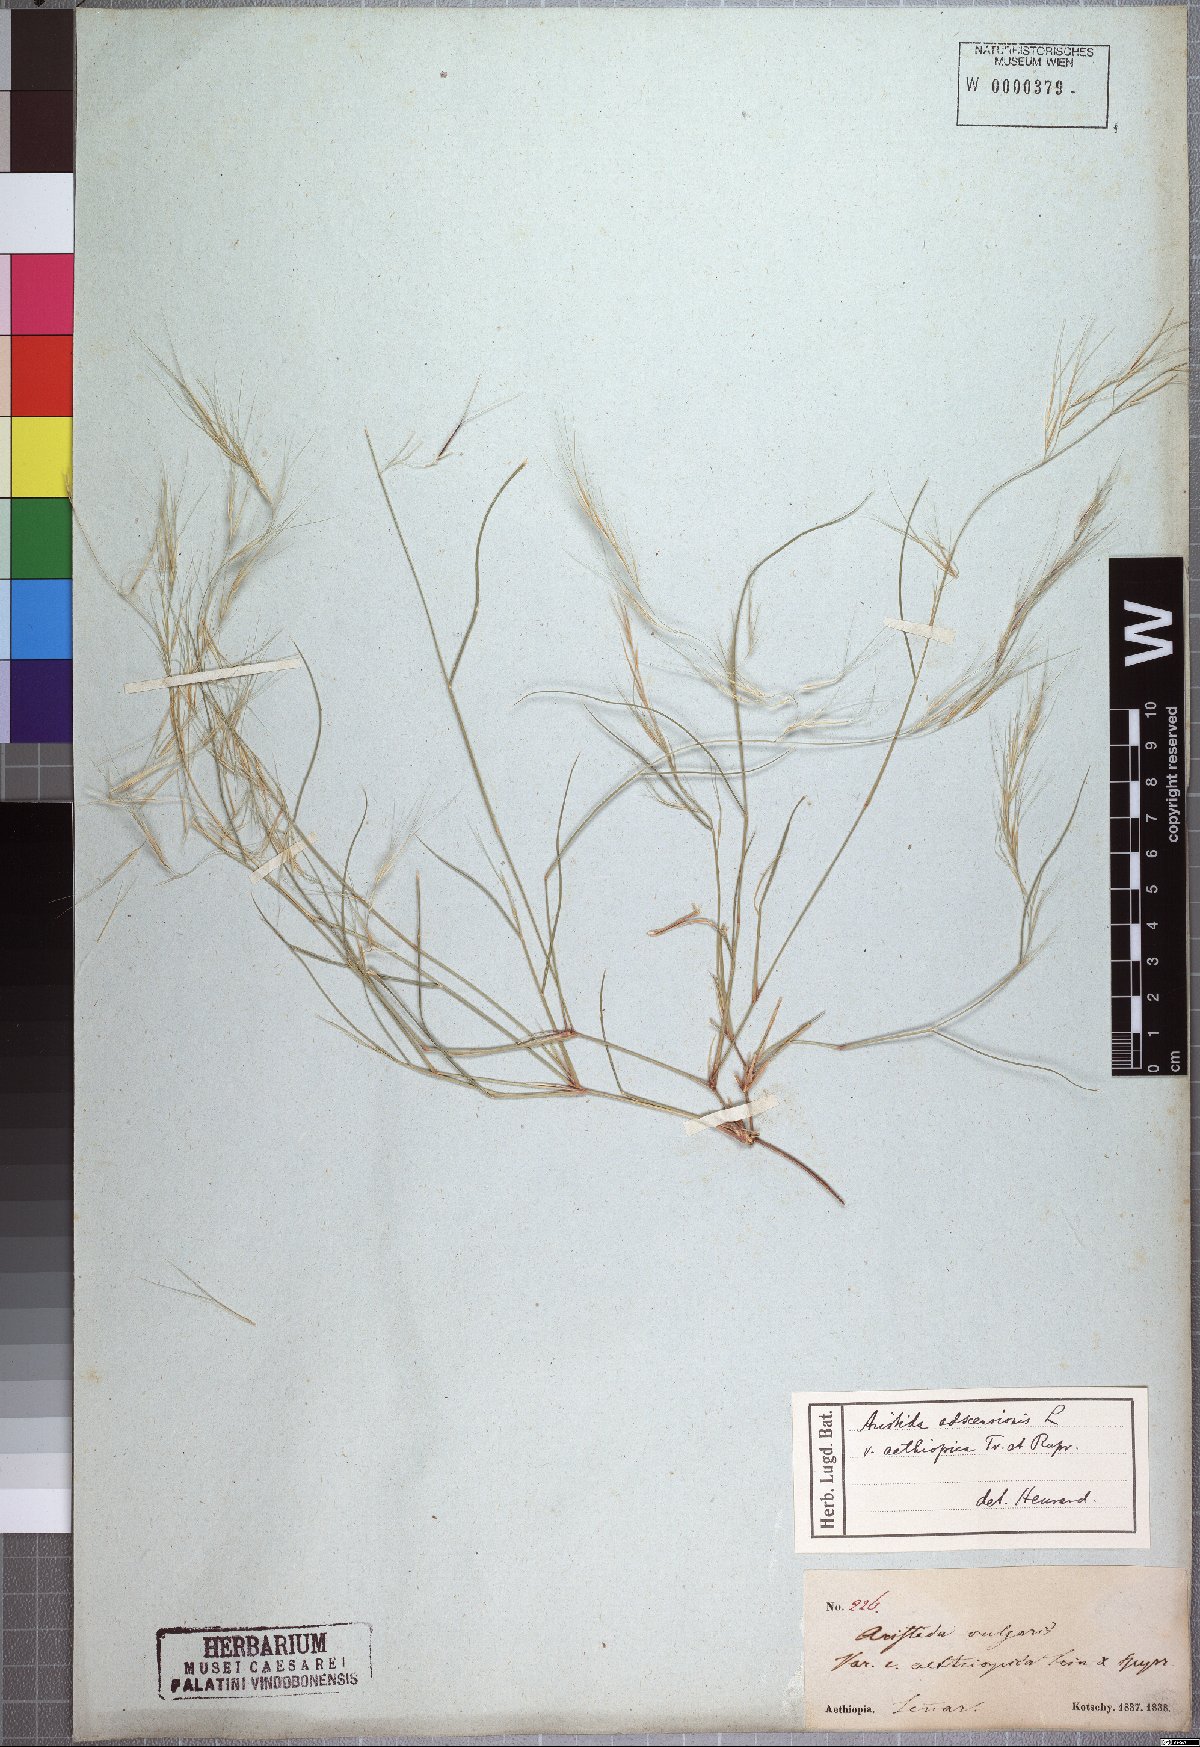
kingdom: Plantae
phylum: Tracheophyta
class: Liliopsida
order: Poales
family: Poaceae
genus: Aristida
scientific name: Aristida adscensionis
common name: Sixweeks threeawn
